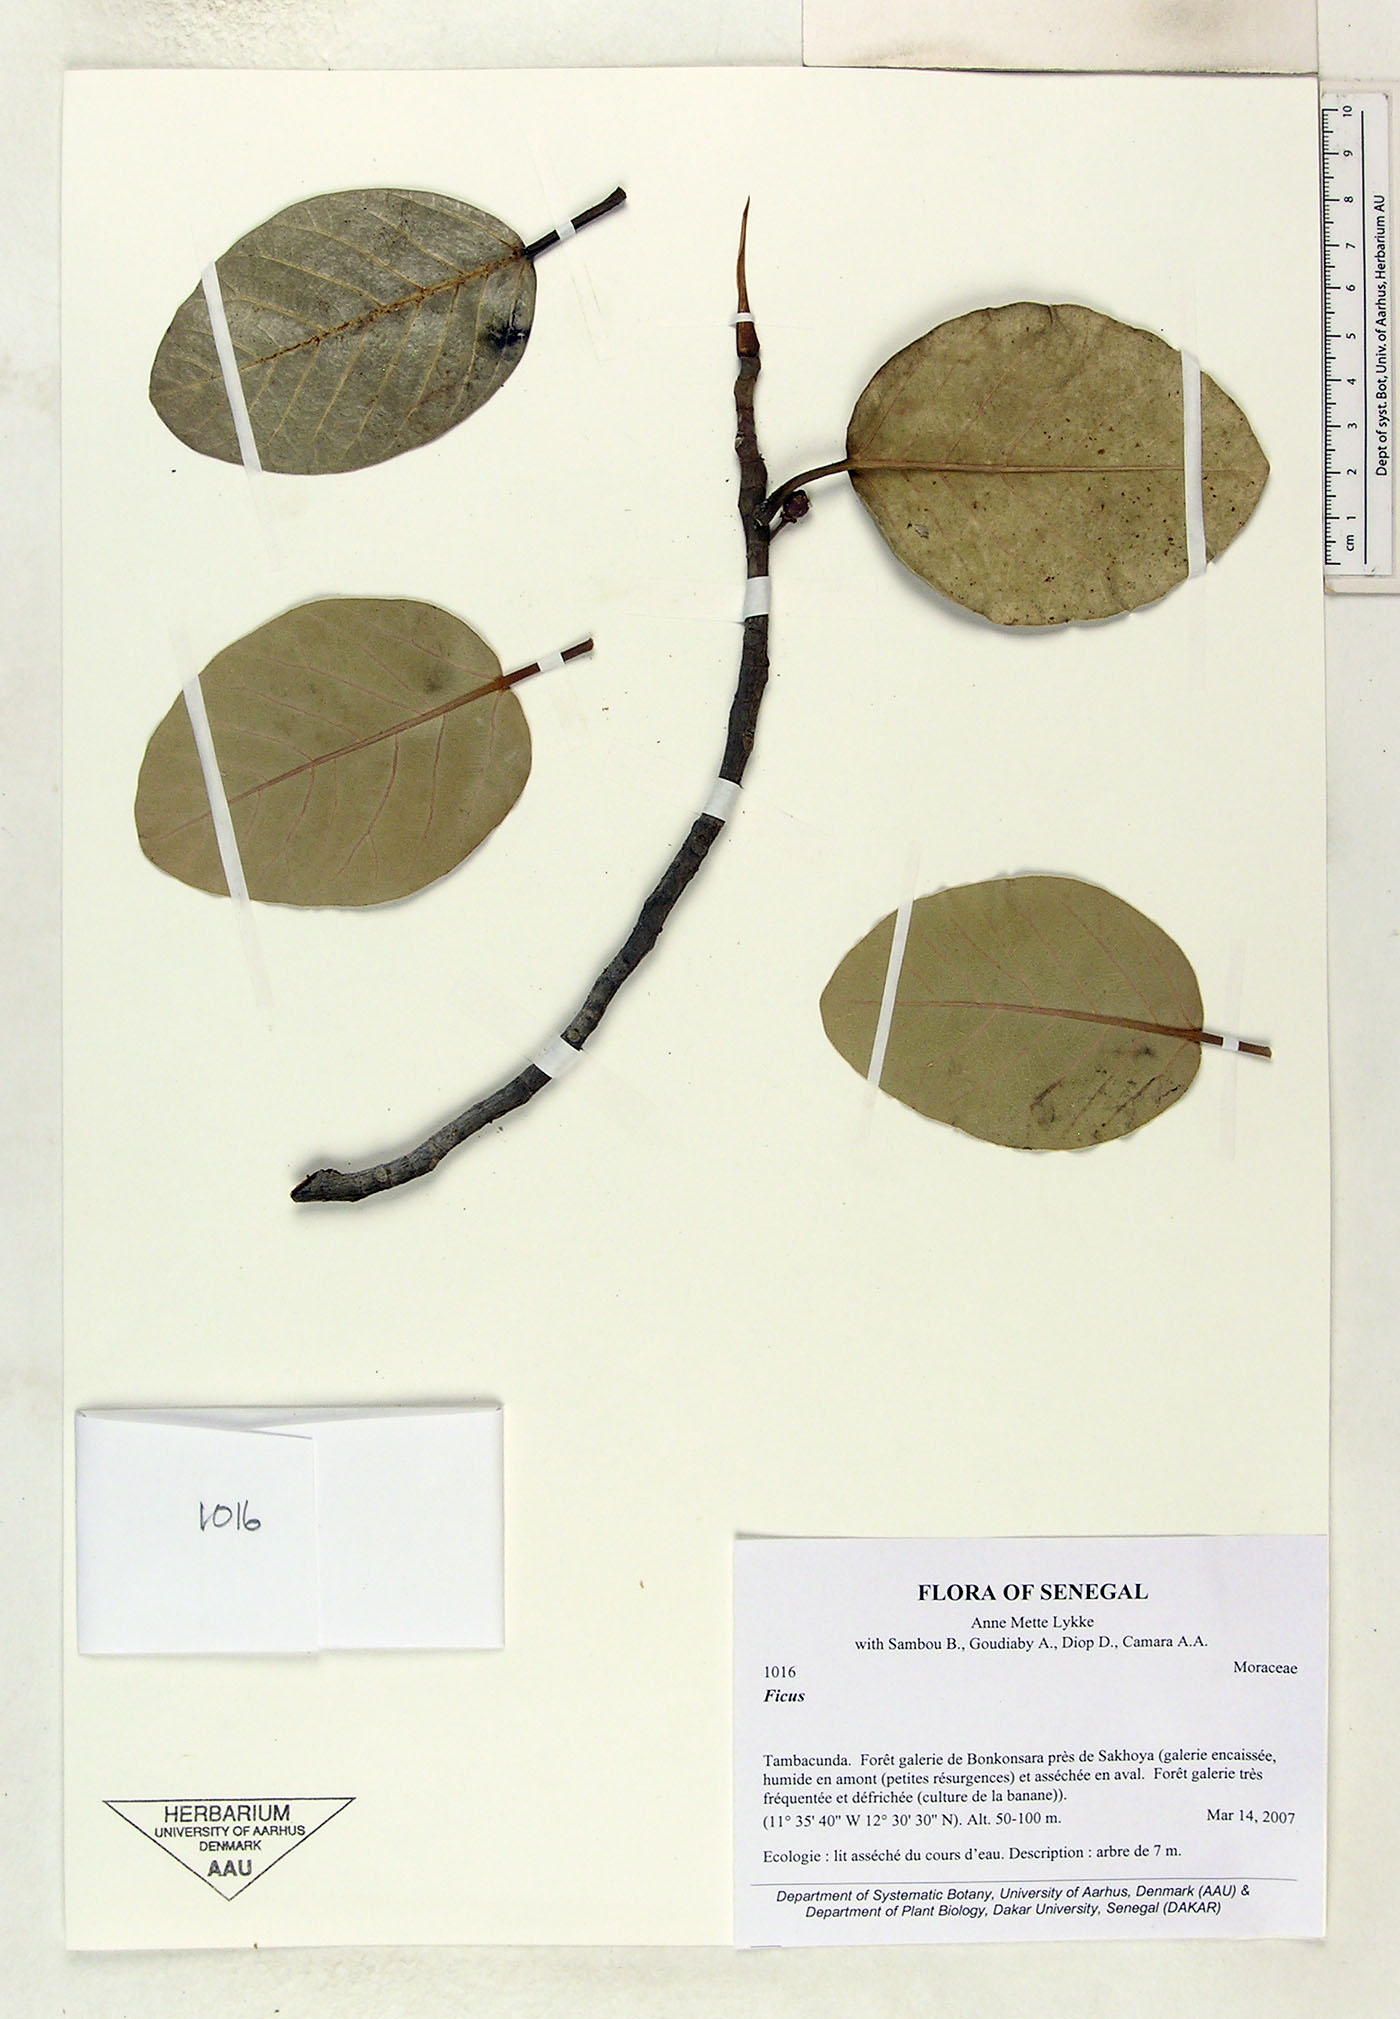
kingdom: Plantae
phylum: Tracheophyta
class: Magnoliopsida
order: Rosales
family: Moraceae
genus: Ficus
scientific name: Ficus
